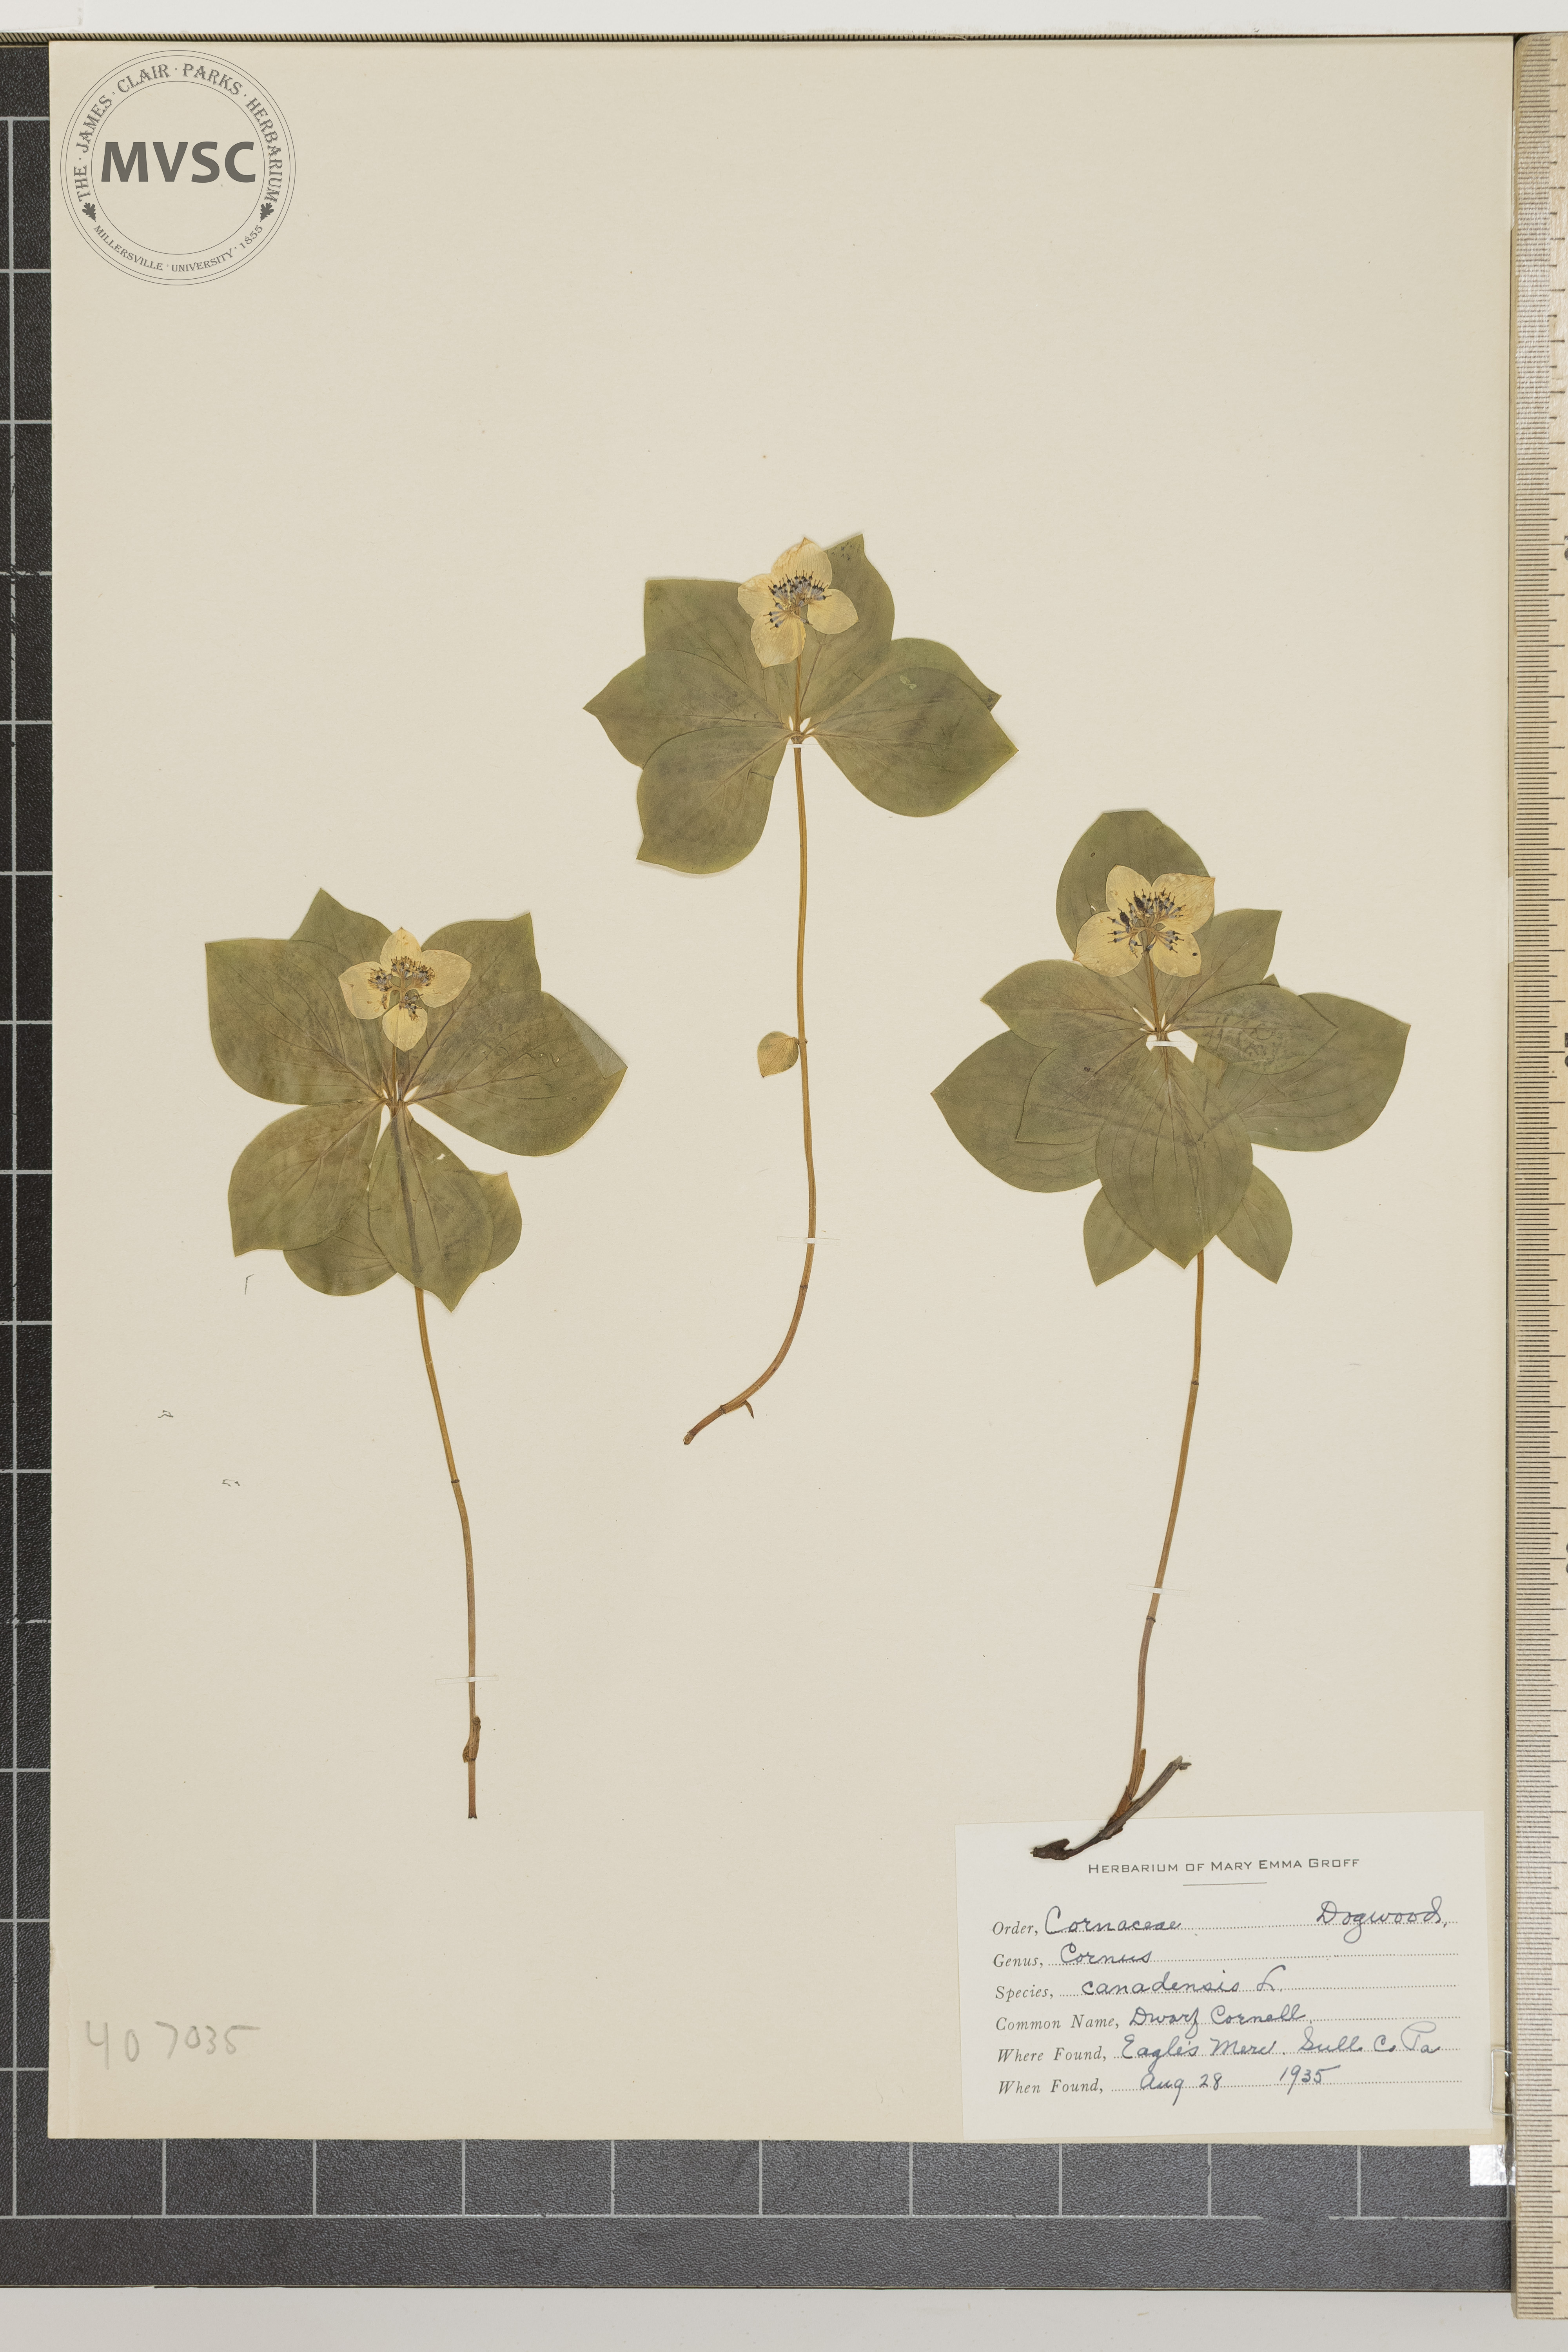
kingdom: Plantae
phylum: Tracheophyta
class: Magnoliopsida
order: Cornales
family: Cornaceae
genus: Cornus
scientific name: Cornus canadensis
